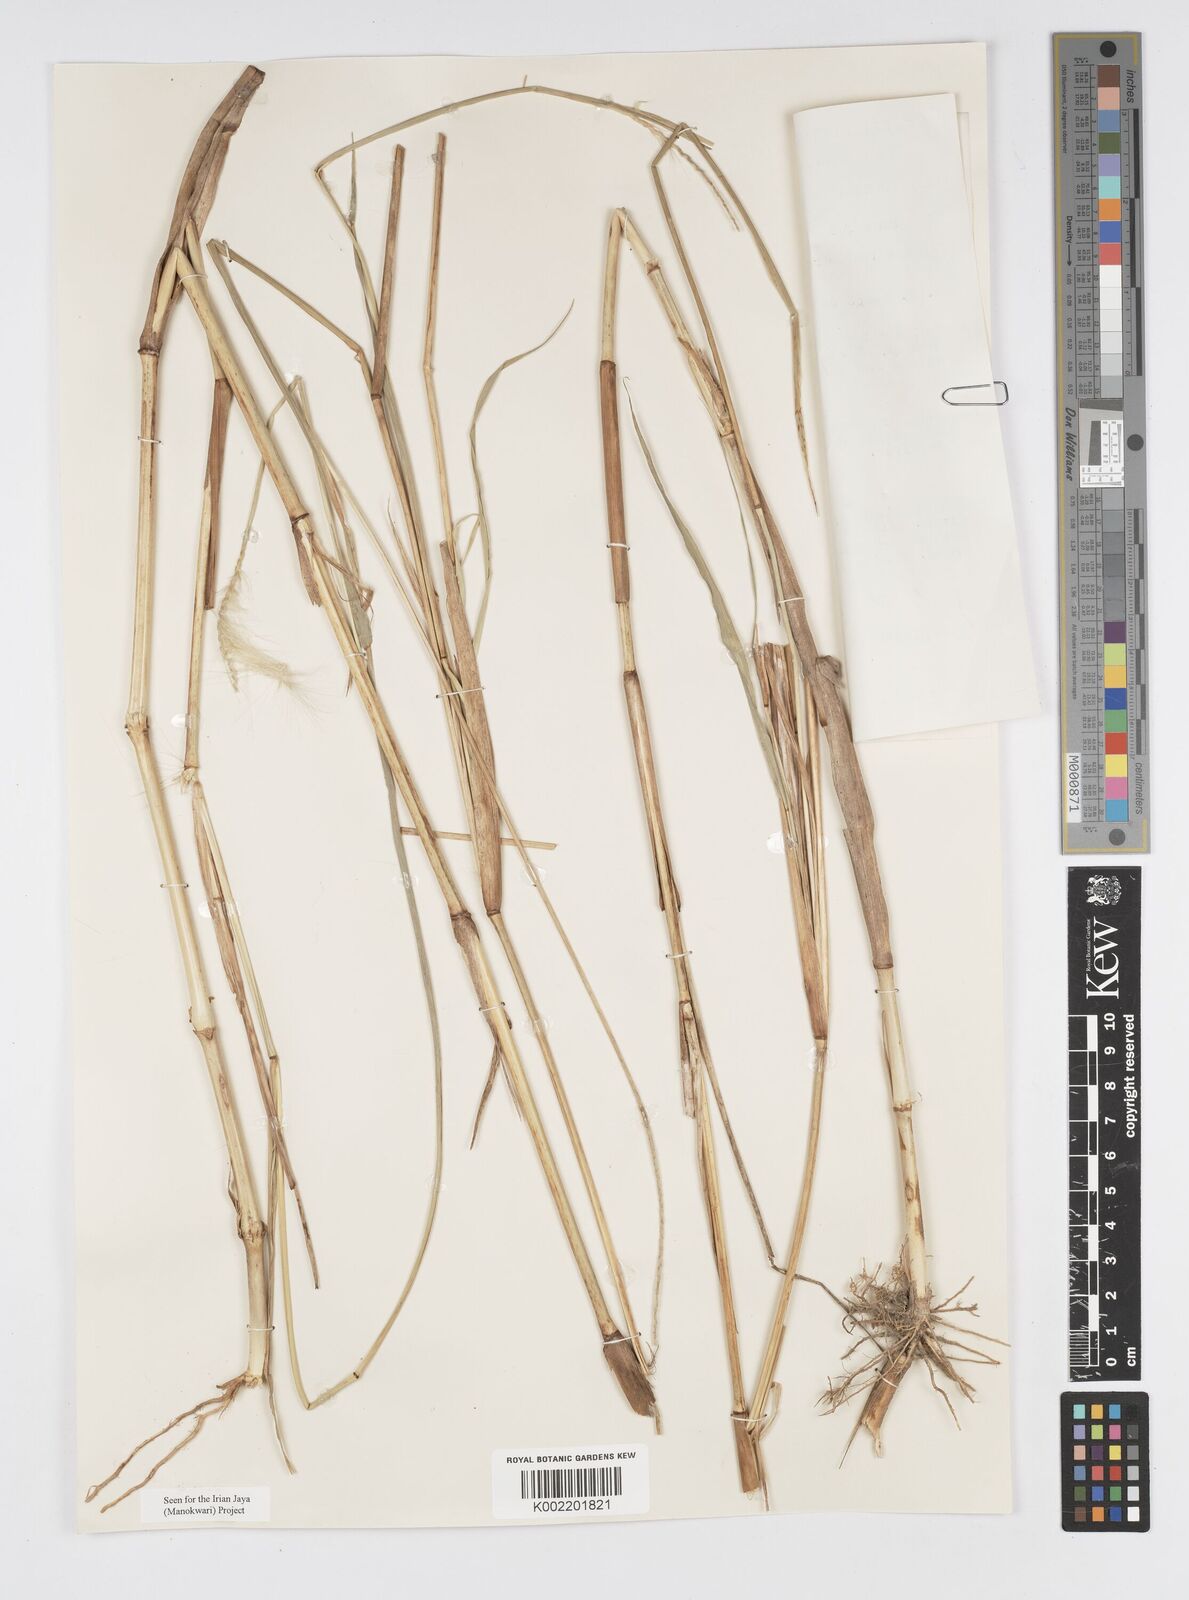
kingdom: Plantae
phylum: Tracheophyta
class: Liliopsida
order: Poales
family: Poaceae
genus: Cenchrus
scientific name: Cenchrus purpureus
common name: Elephant grass
